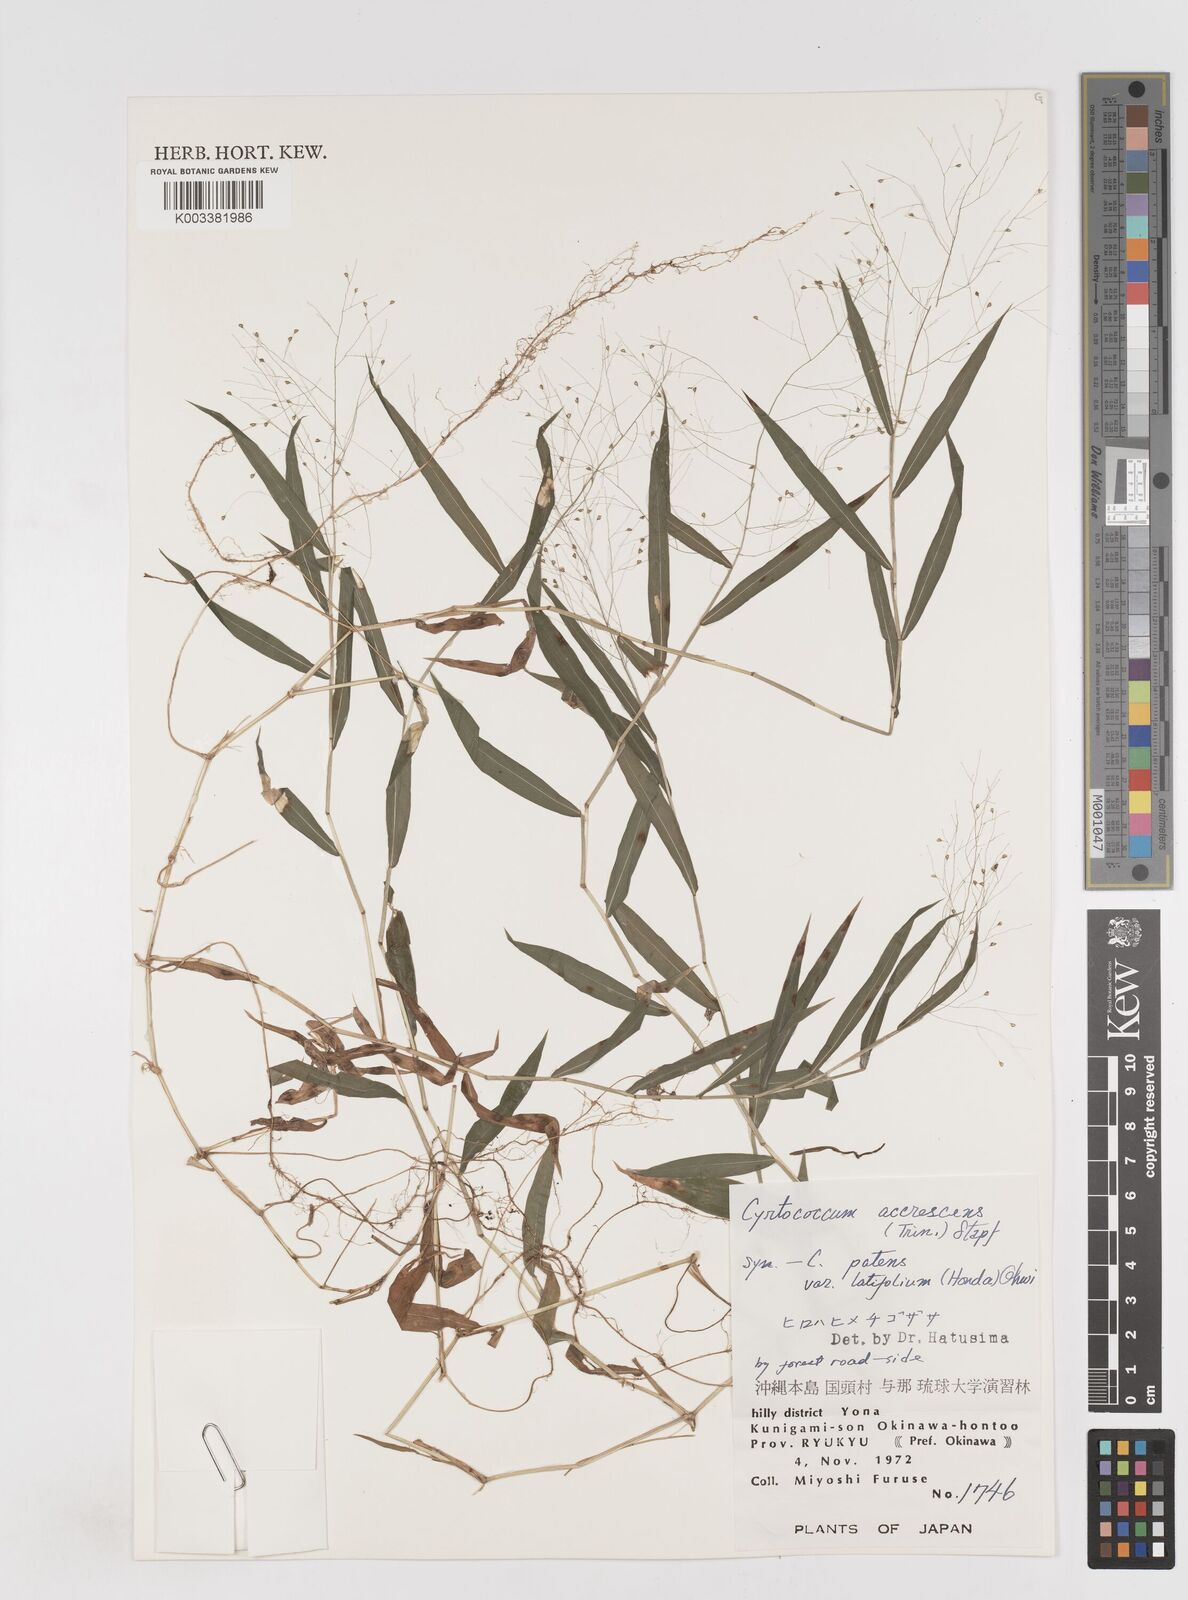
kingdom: Plantae
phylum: Tracheophyta
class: Liliopsida
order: Poales
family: Poaceae
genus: Cyrtococcum
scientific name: Cyrtococcum patens
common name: Broad-leaved bowgrass
